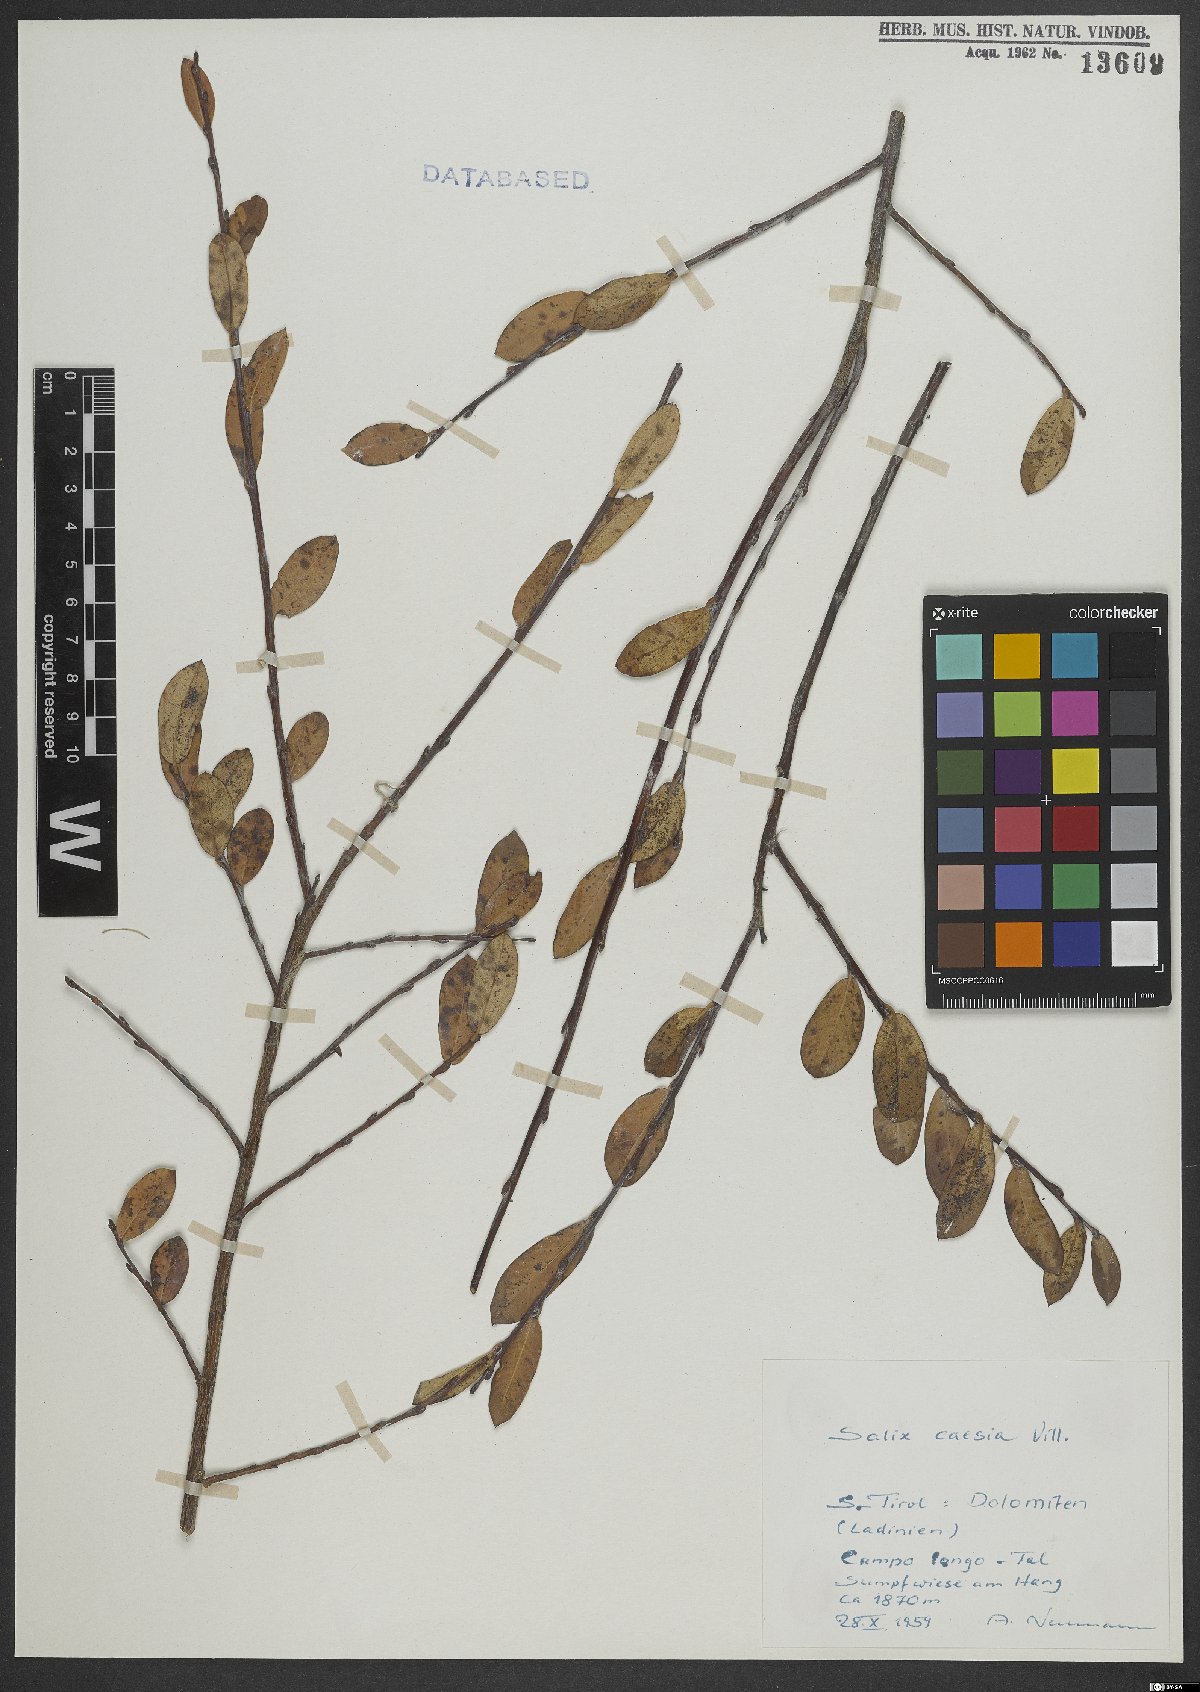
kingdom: Plantae
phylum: Tracheophyta
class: Magnoliopsida
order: Malpighiales
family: Salicaceae
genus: Salix
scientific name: Salix caesia
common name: Blue willow
